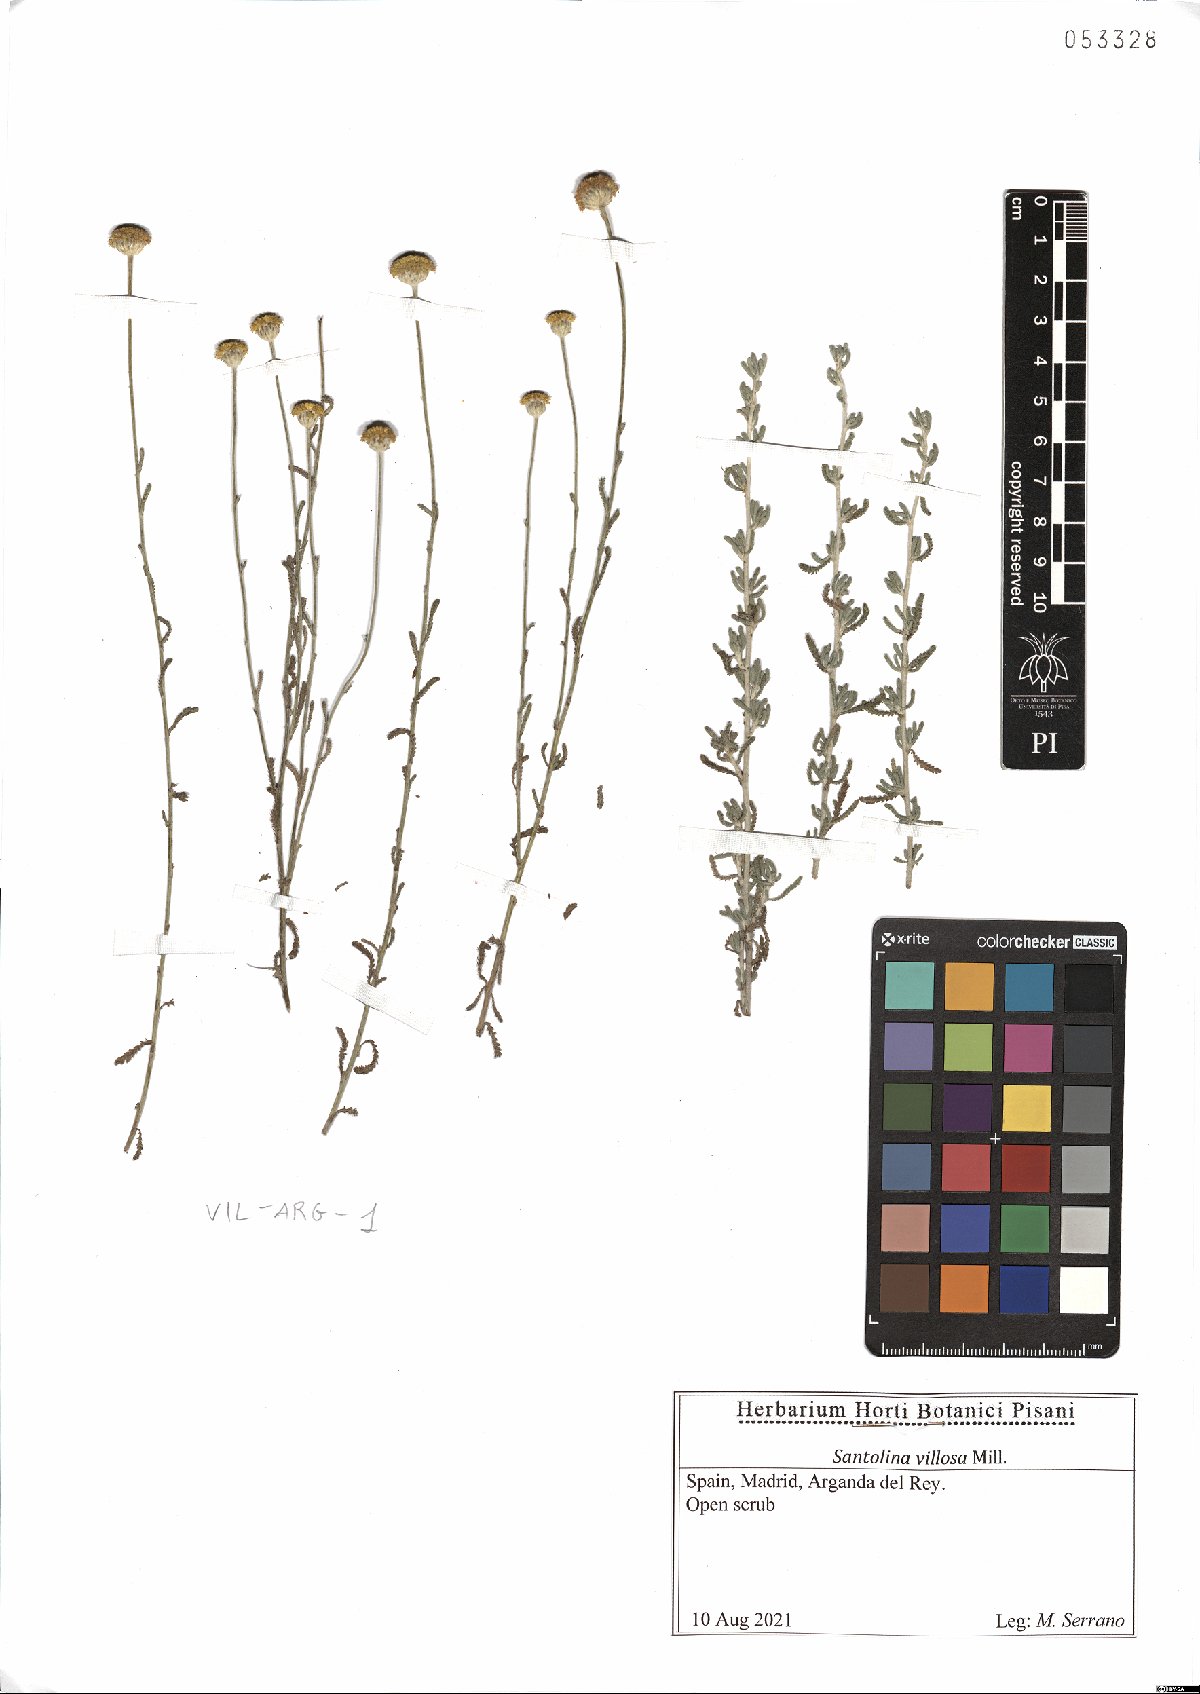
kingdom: Plantae
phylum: Tracheophyta
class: Magnoliopsida
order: Asterales
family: Asteraceae
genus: Santolina
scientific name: Santolina chamaecyparissus
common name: Lavender-cotton
